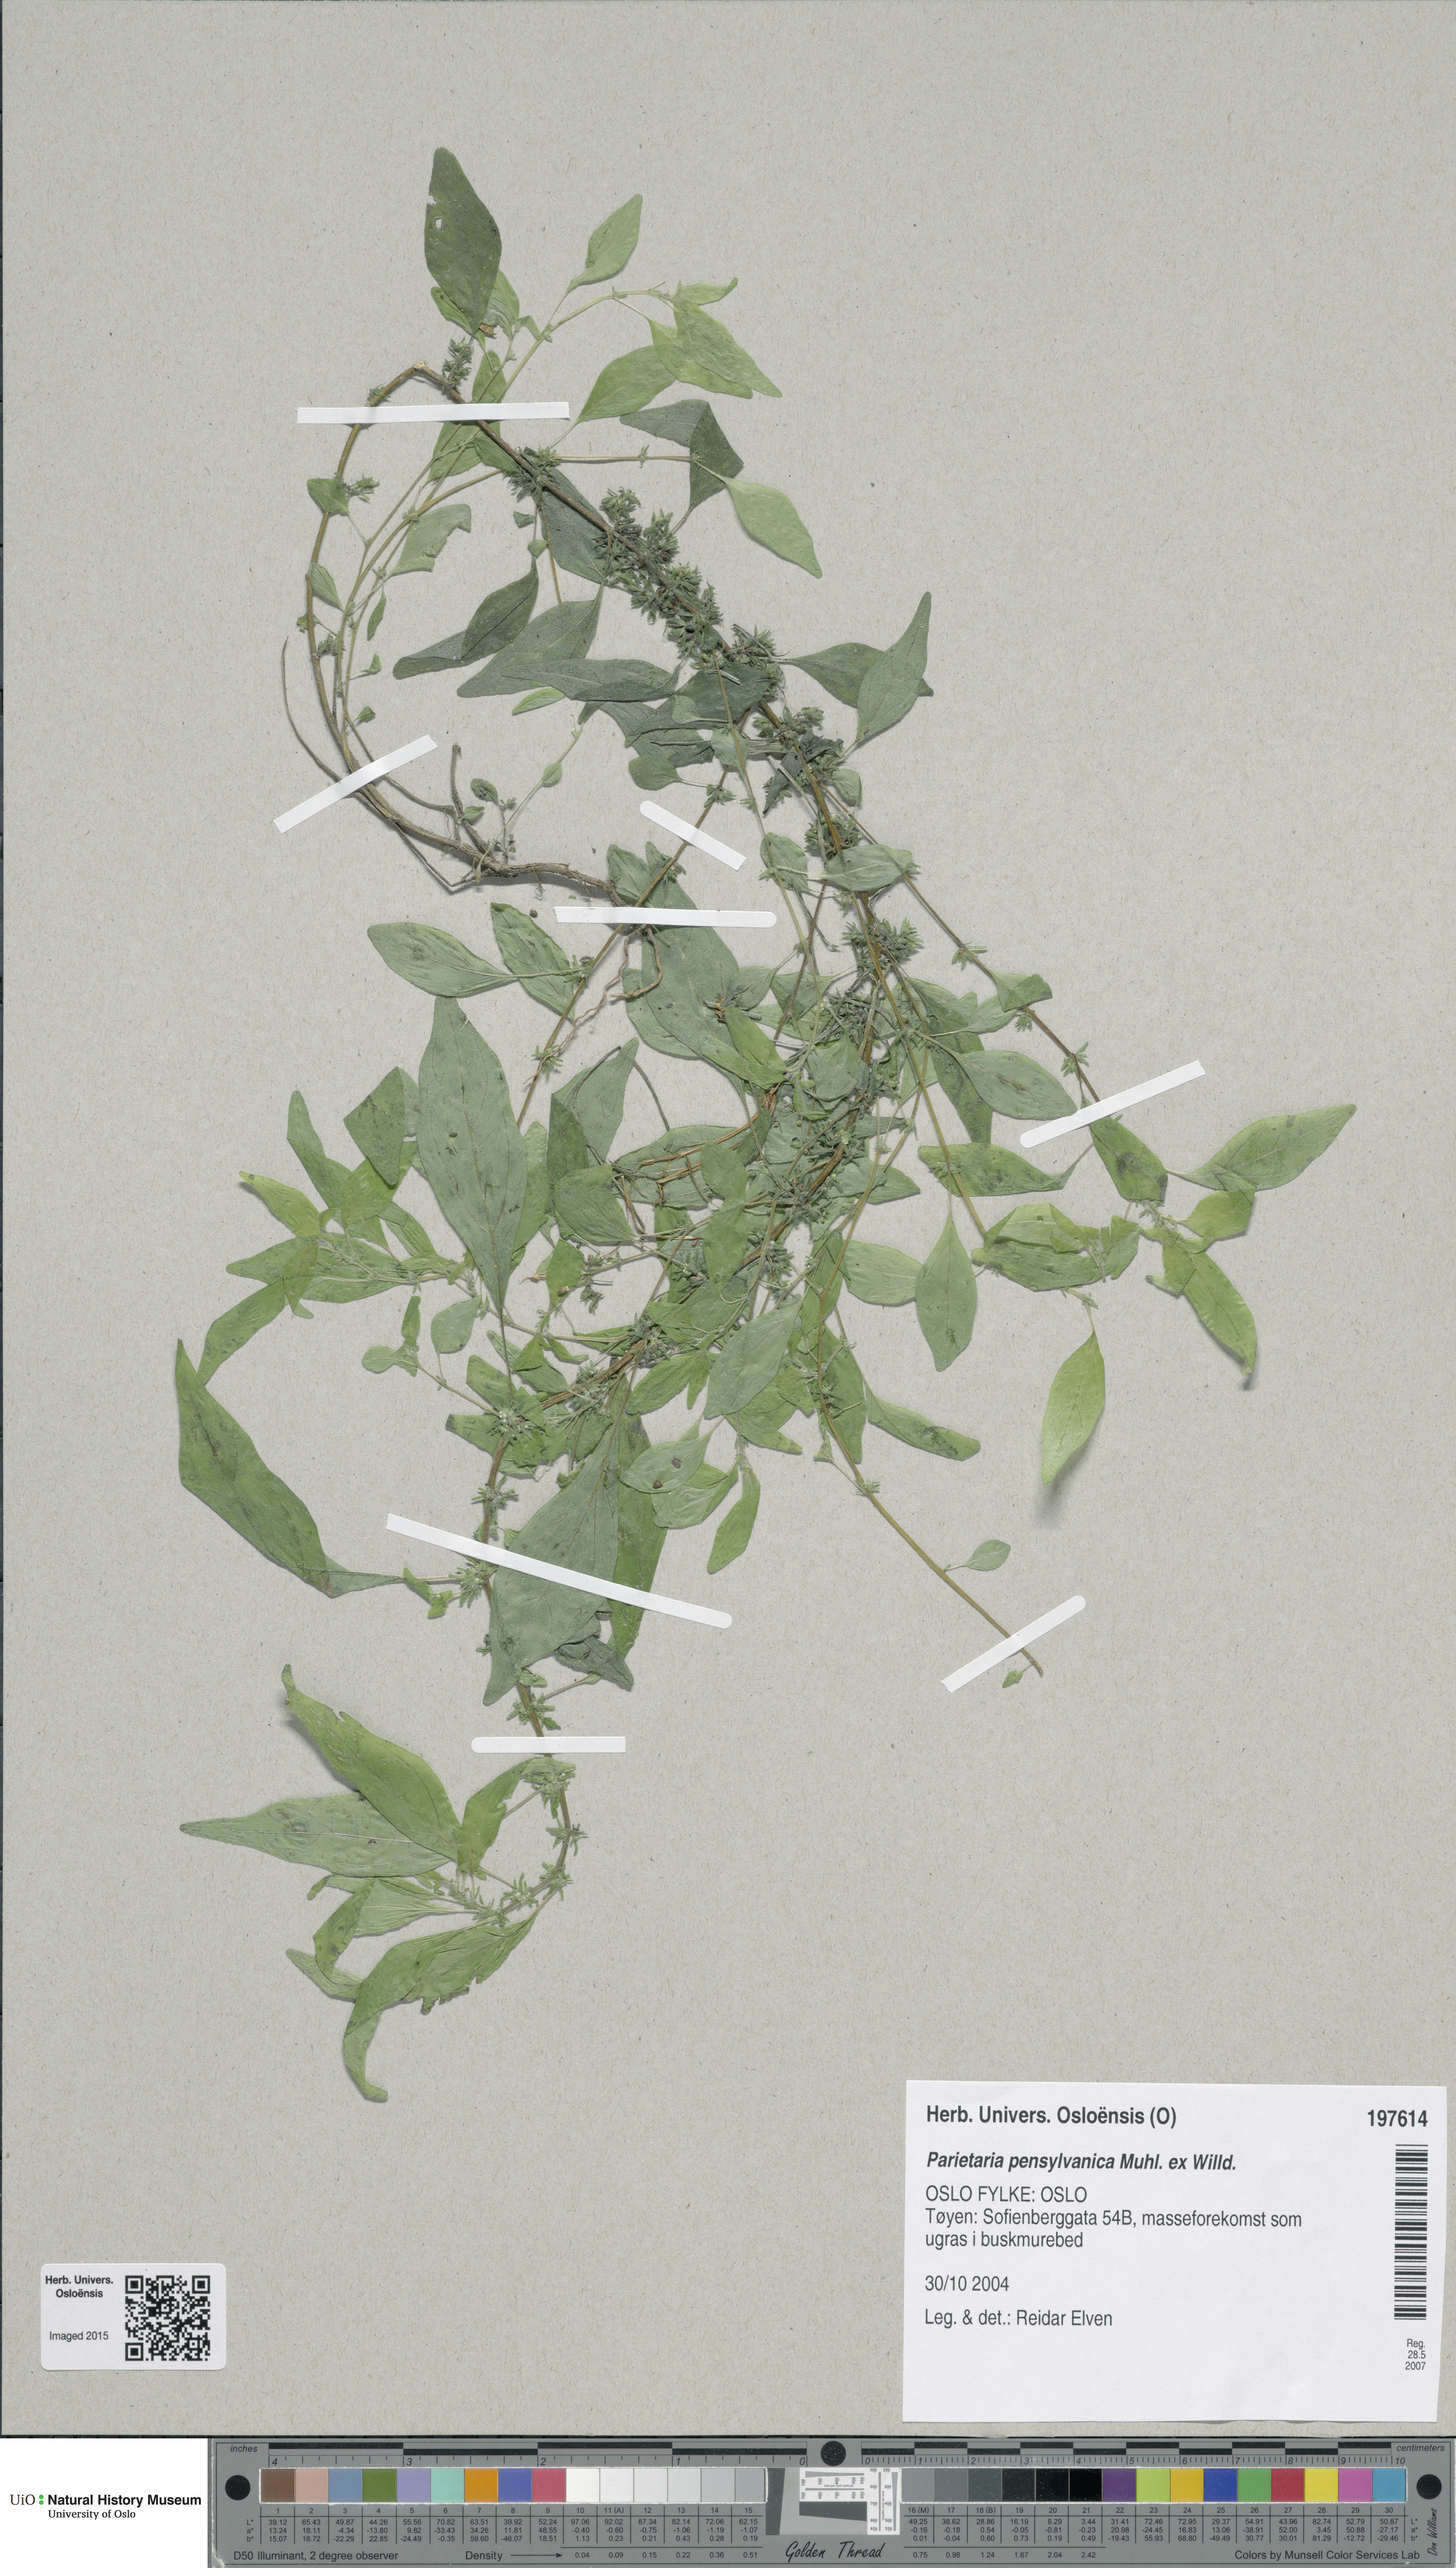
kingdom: Plantae
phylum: Tracheophyta
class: Magnoliopsida
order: Rosales
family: Urticaceae
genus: Parietaria
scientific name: Parietaria pensylvanica
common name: Pennsylvania pellitory
